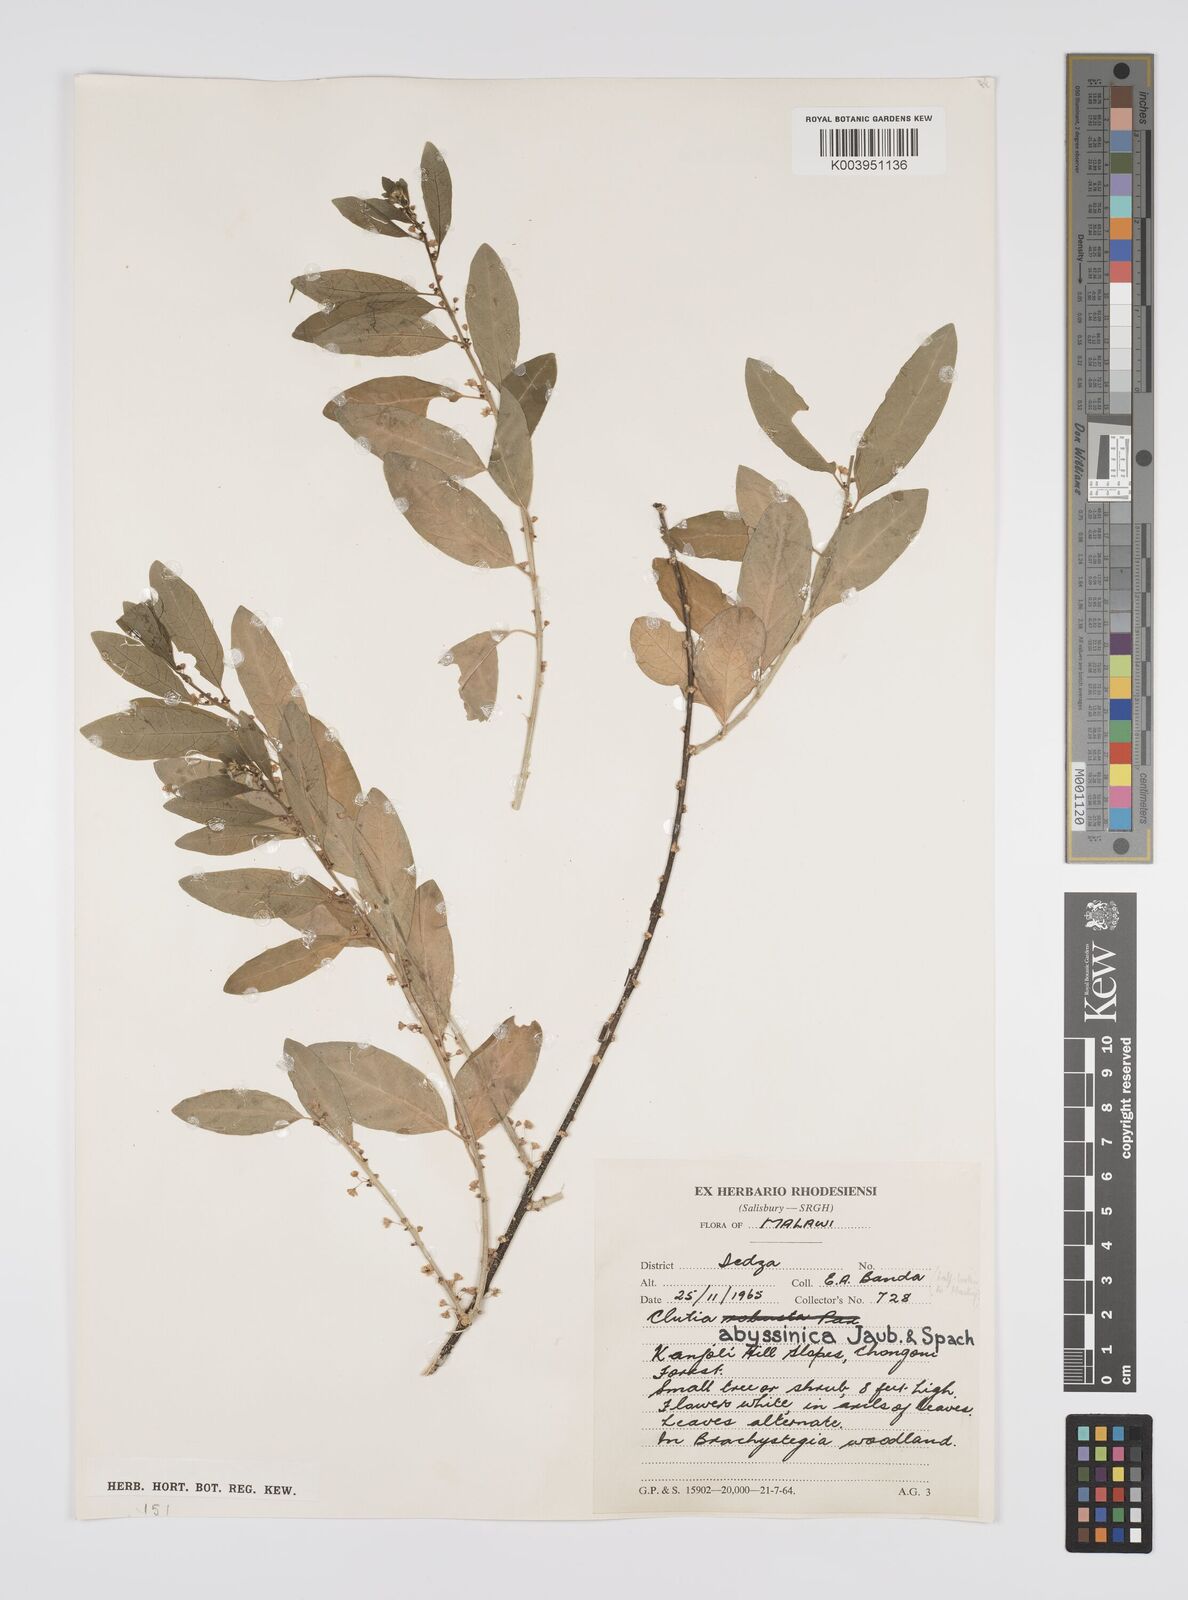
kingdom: Plantae
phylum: Tracheophyta
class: Magnoliopsida
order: Malpighiales
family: Peraceae
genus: Clutia
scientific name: Clutia abyssinica
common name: Large lightning bush
